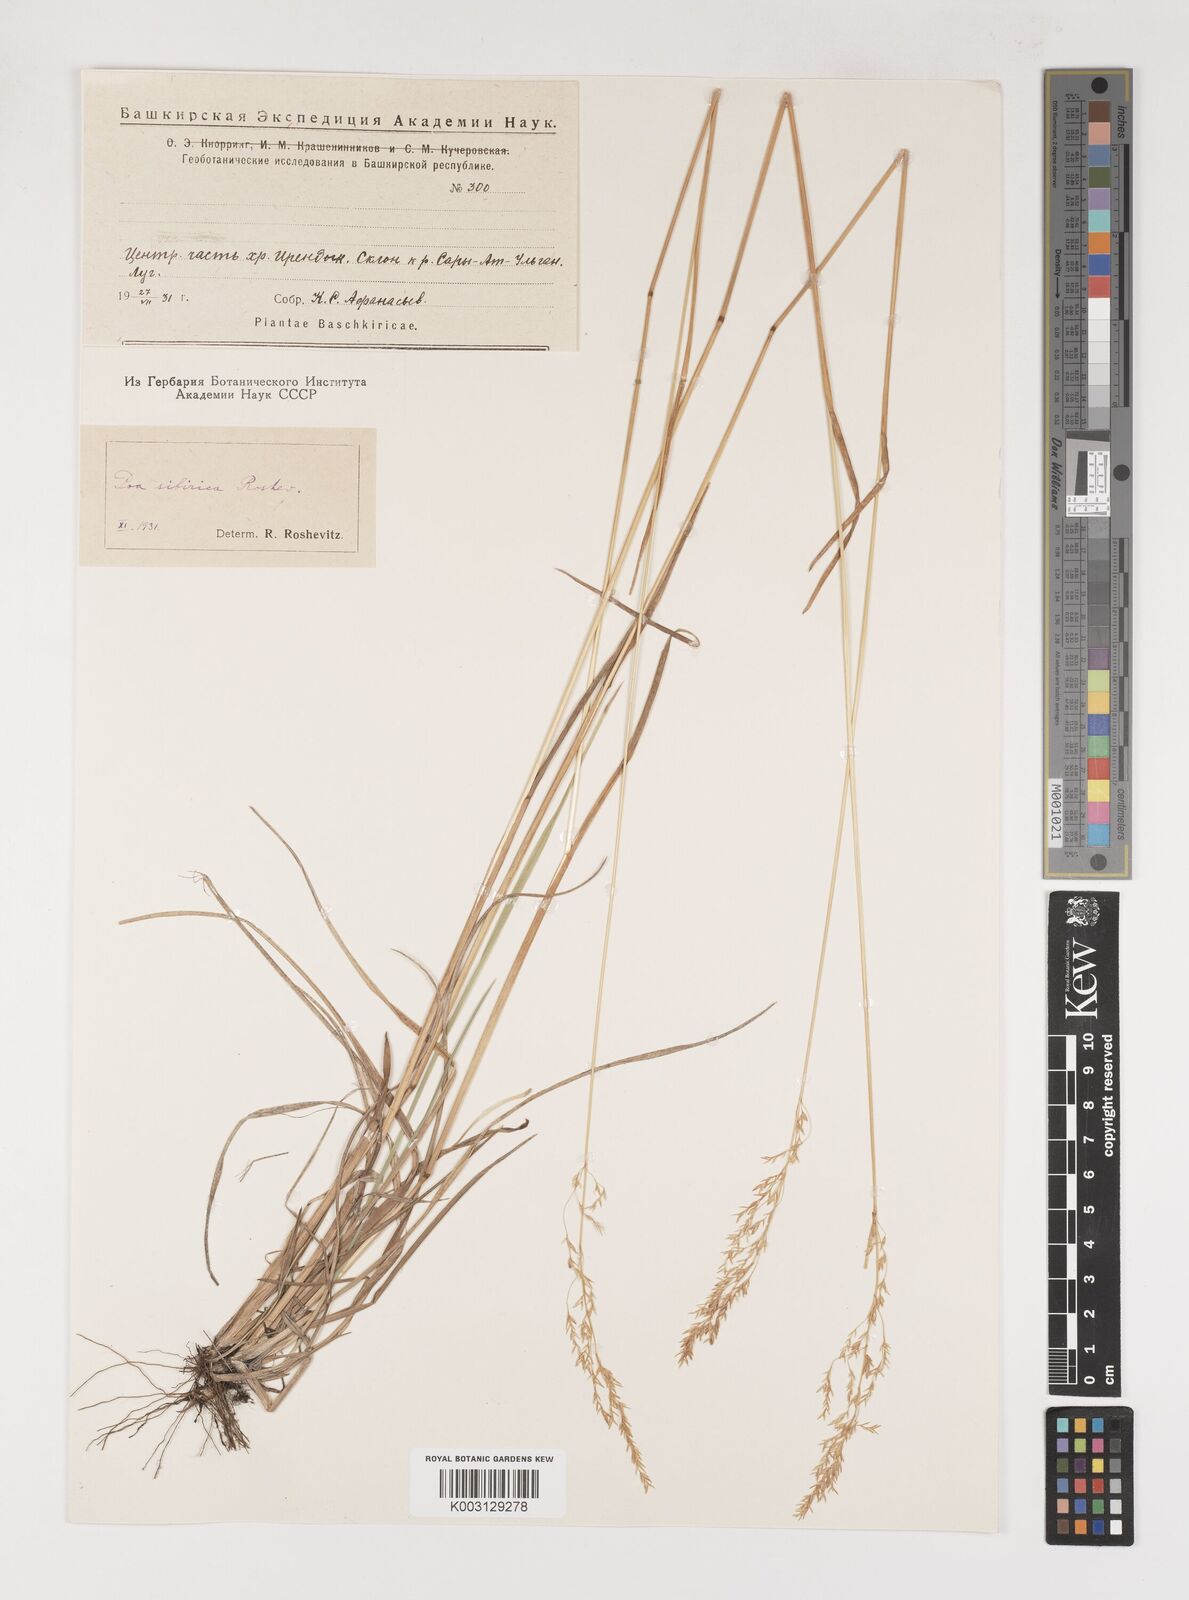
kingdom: Plantae
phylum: Tracheophyta
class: Liliopsida
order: Poales
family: Poaceae
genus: Poa
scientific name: Poa sibirica
